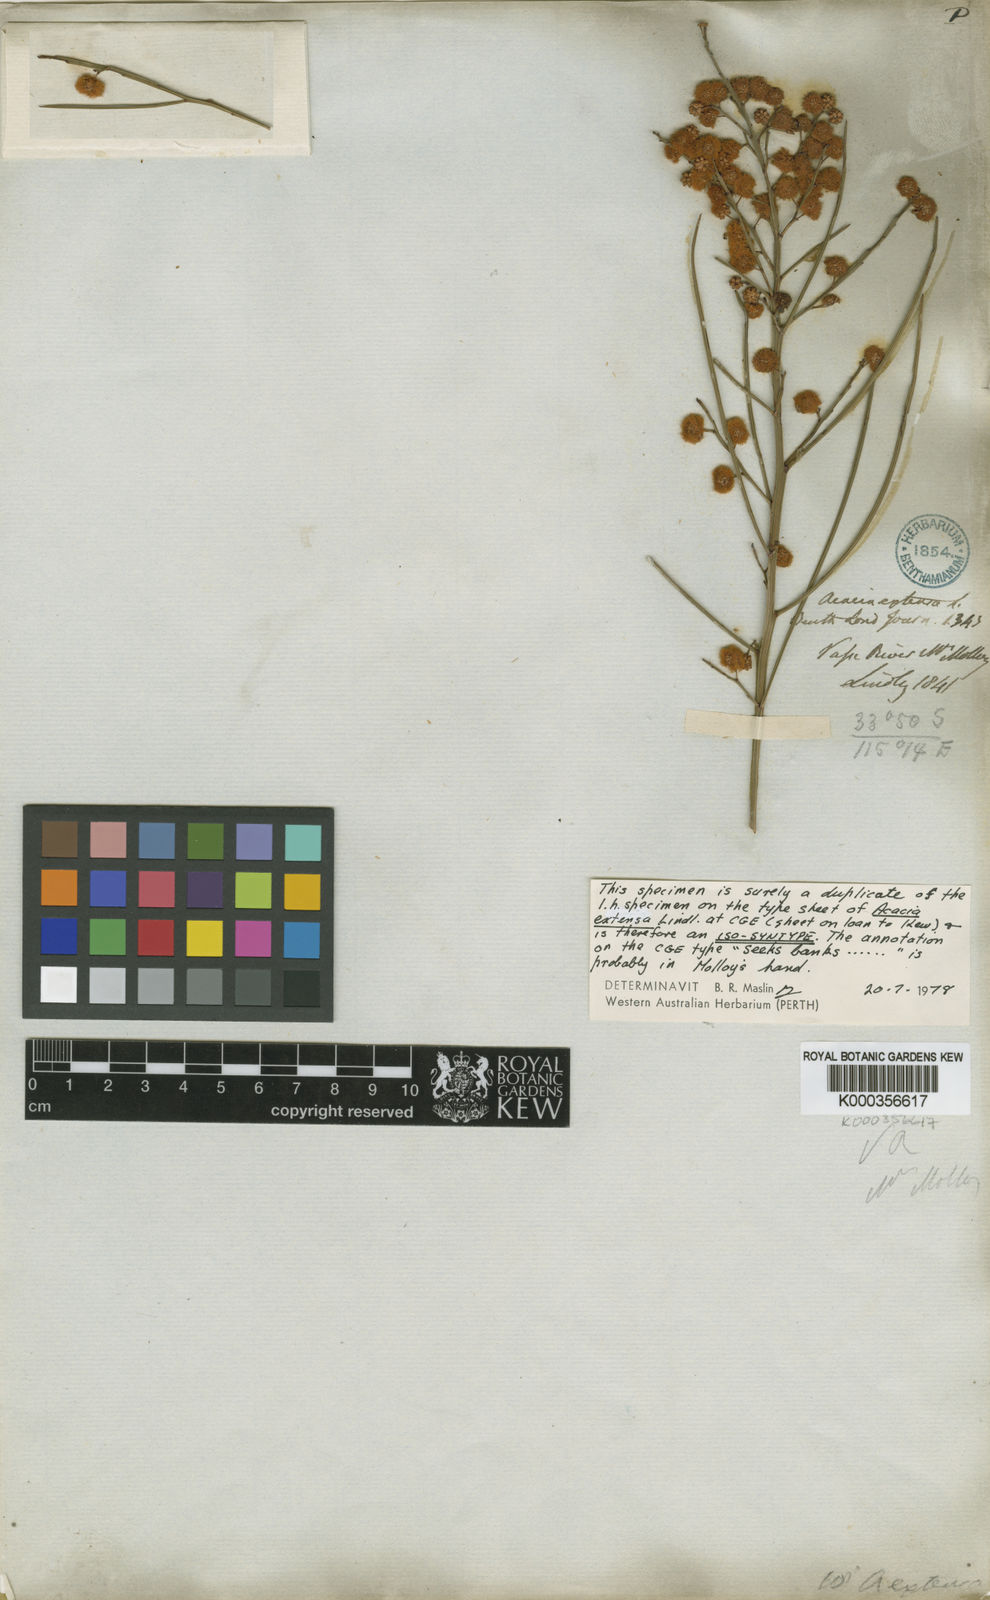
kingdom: Plantae
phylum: Tracheophyta
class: Magnoliopsida
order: Fabales
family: Fabaceae
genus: Acacia
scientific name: Acacia extensa
